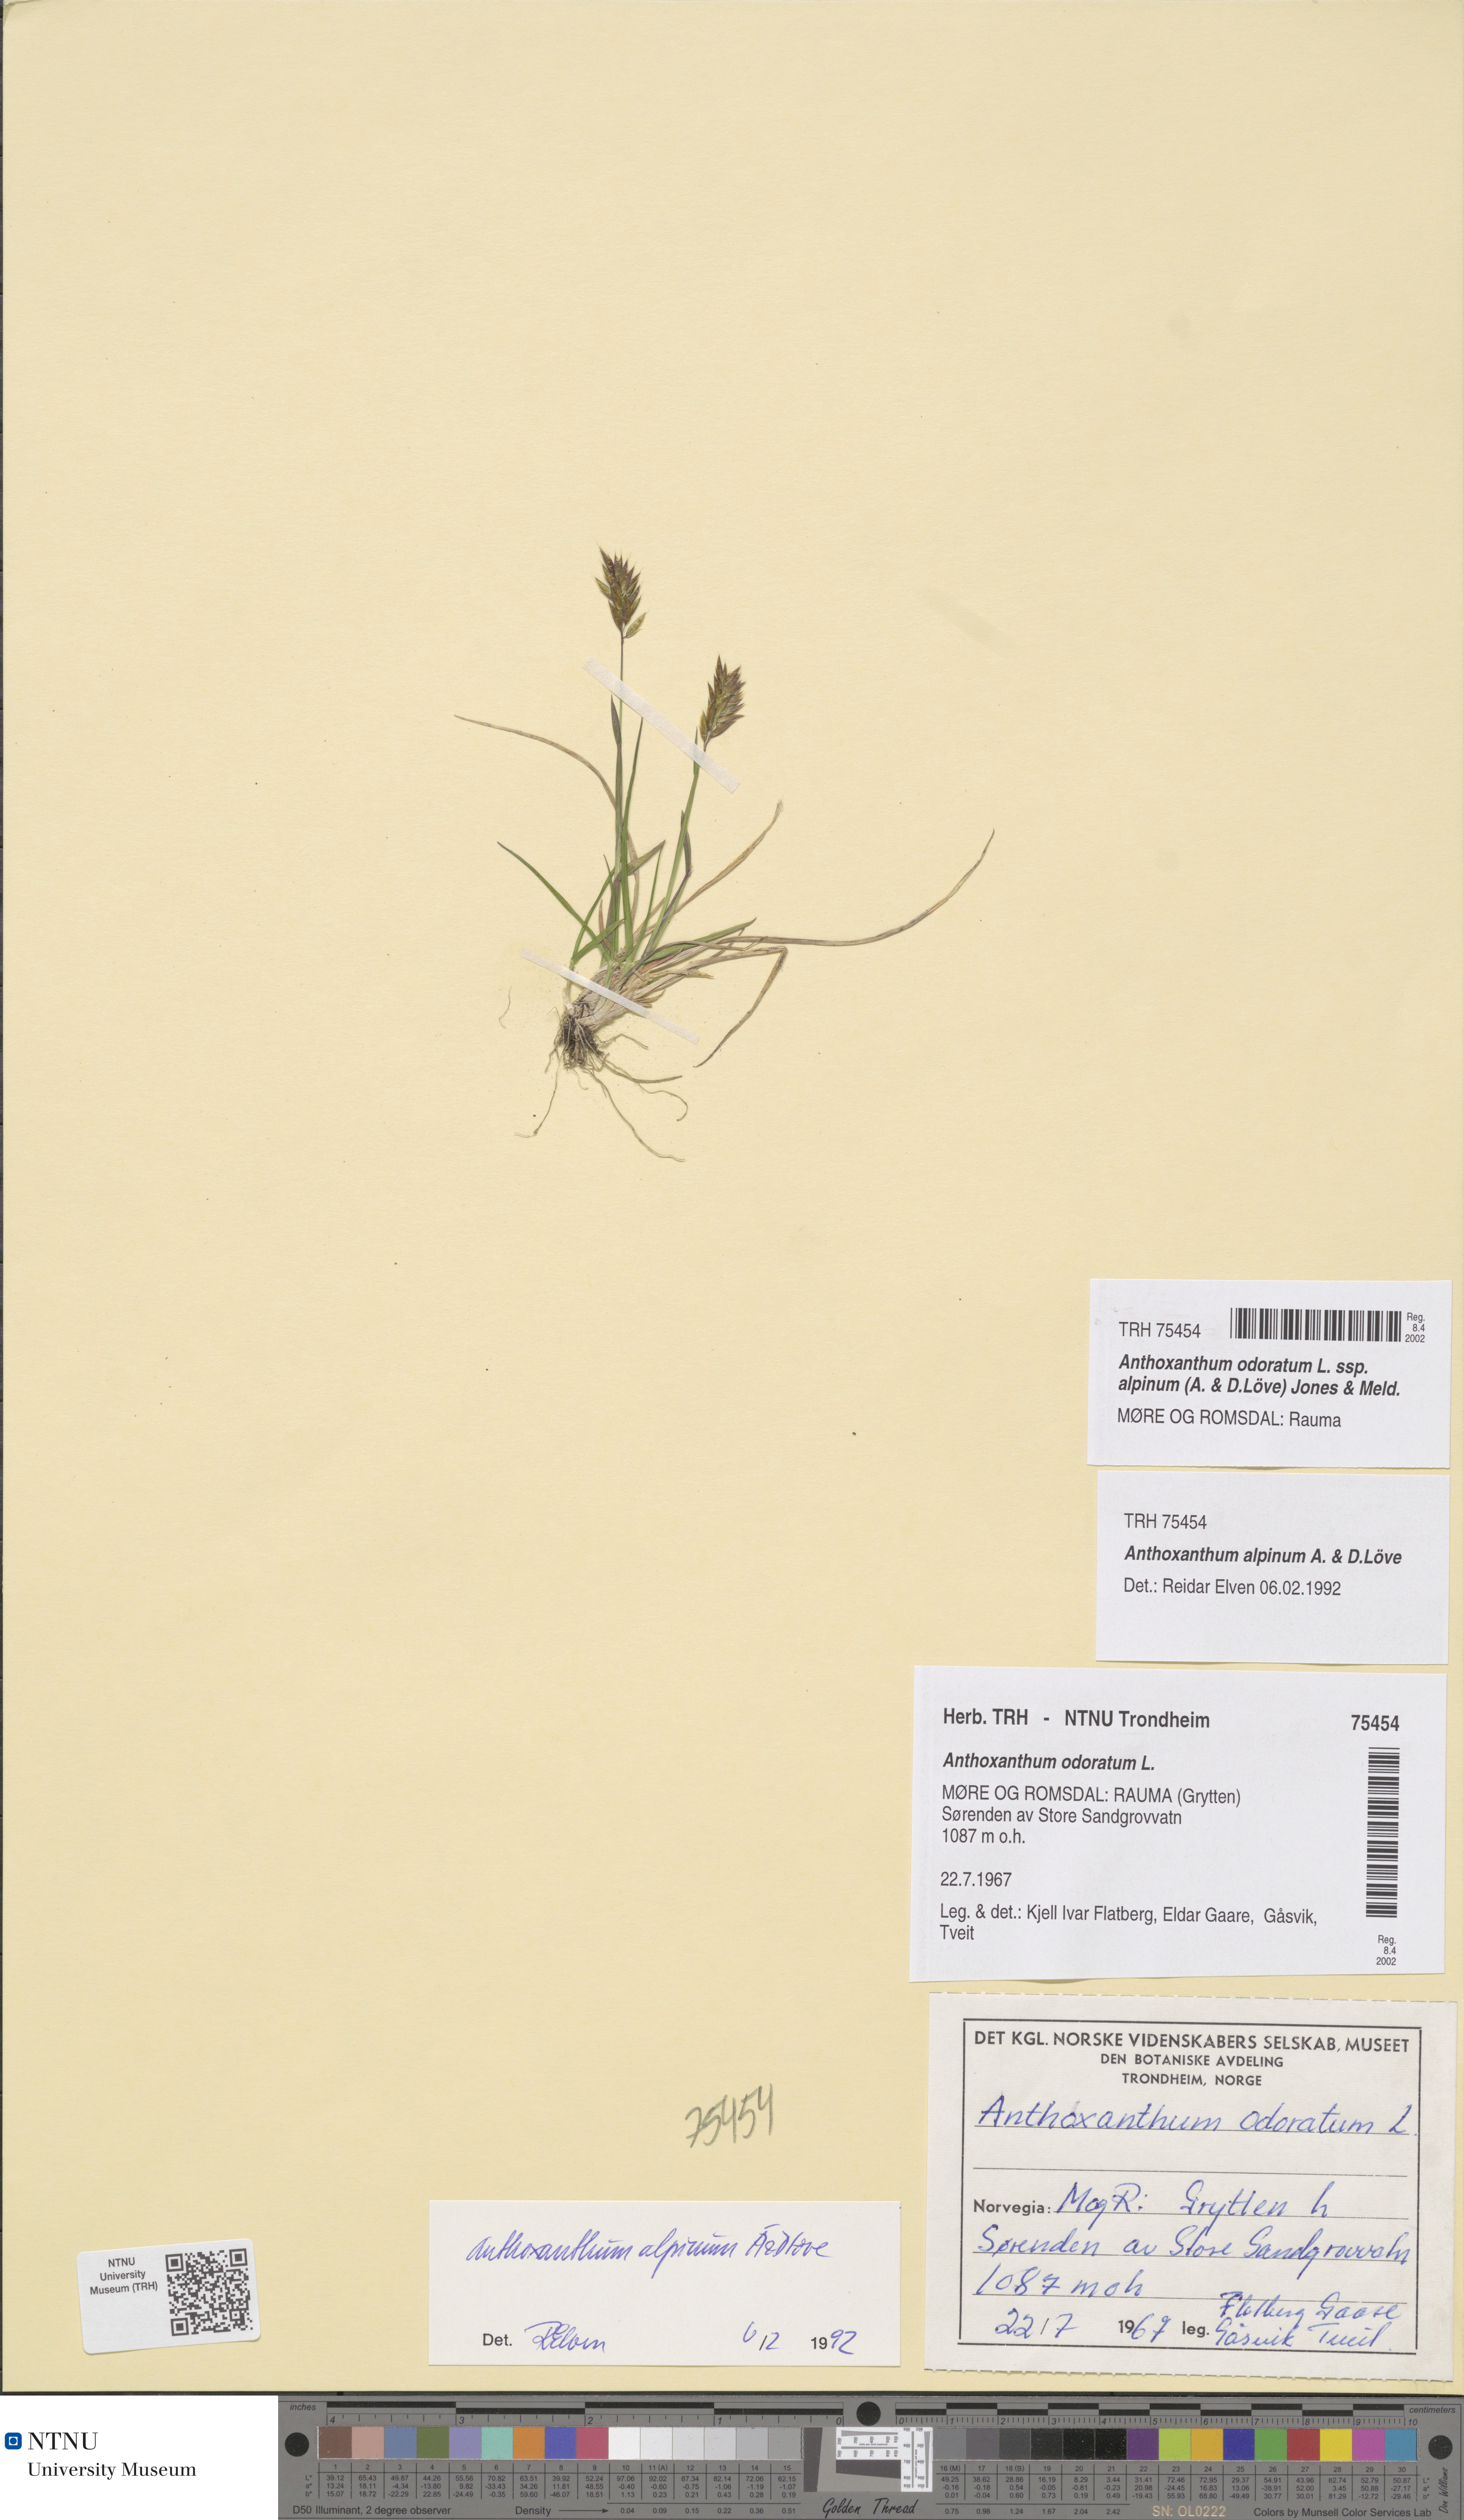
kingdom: Plantae
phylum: Tracheophyta
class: Liliopsida
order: Poales
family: Poaceae
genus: Anthoxanthum
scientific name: Anthoxanthum nipponicum
